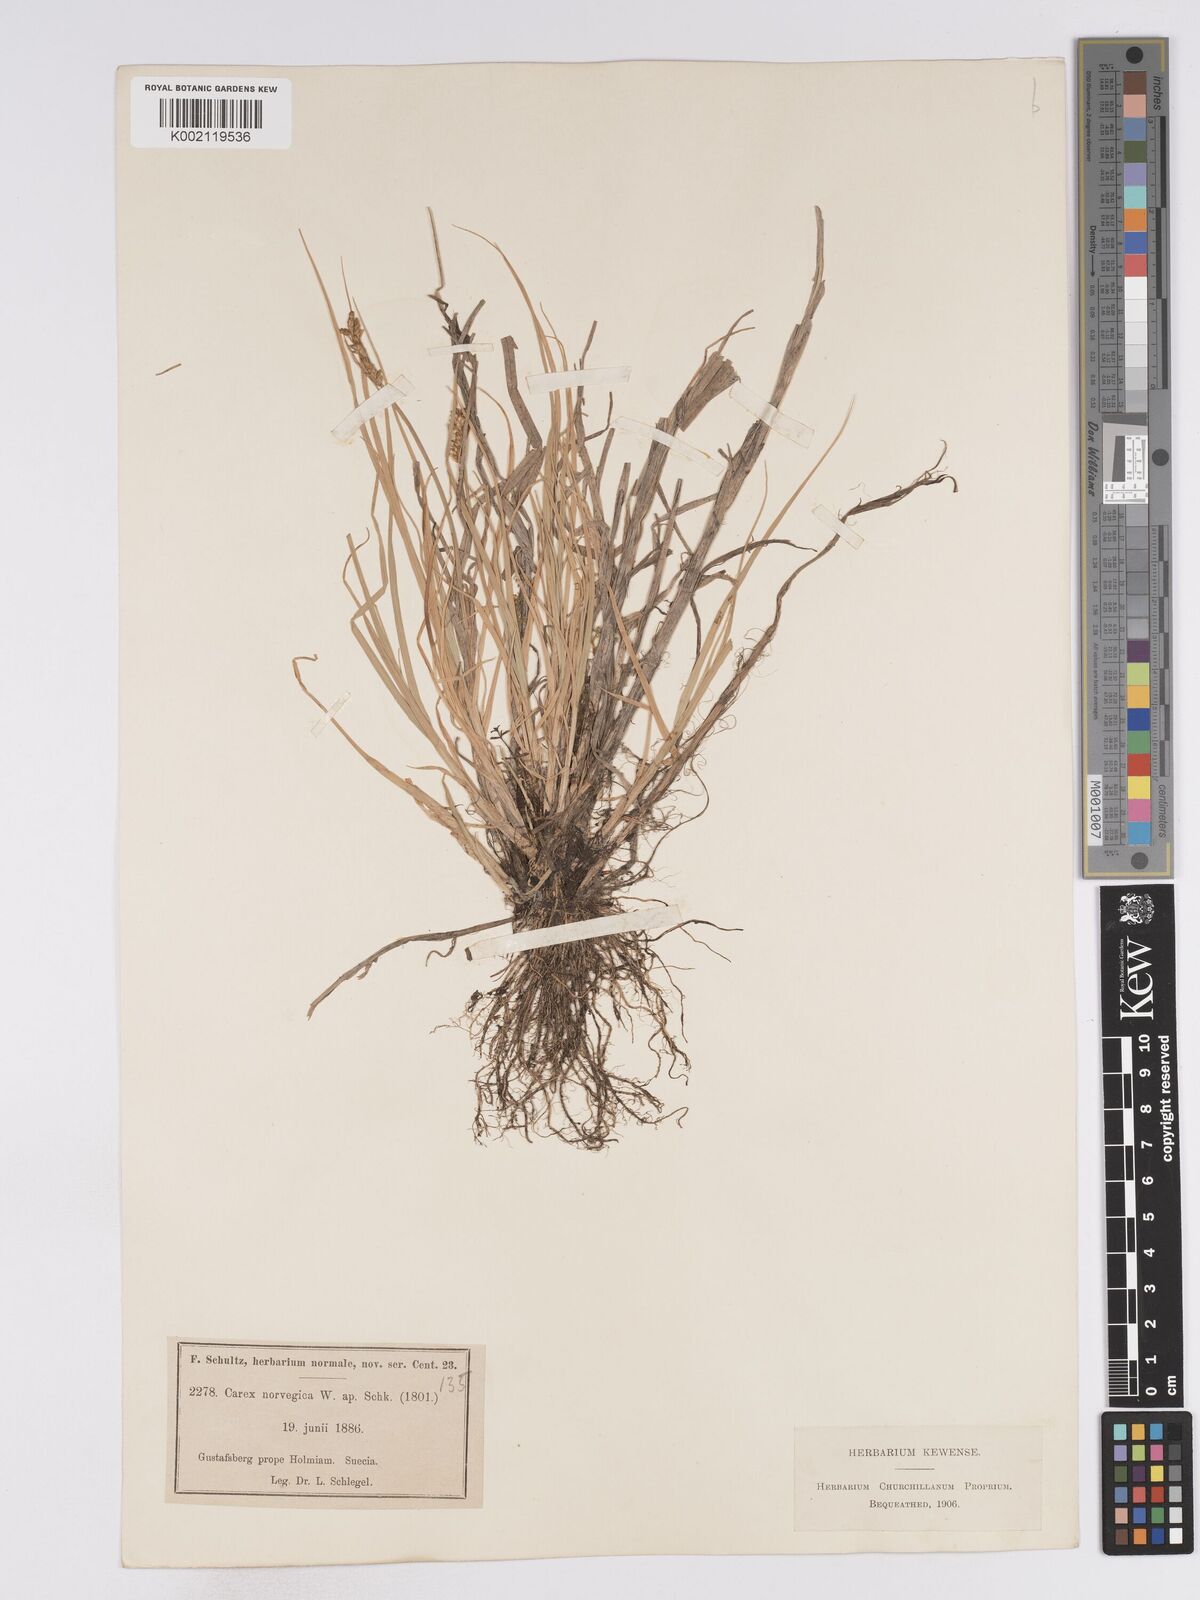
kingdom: Plantae
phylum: Tracheophyta
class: Liliopsida
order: Poales
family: Cyperaceae
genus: Carex
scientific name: Carex mackenziei
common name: Mackenzie's sedge
